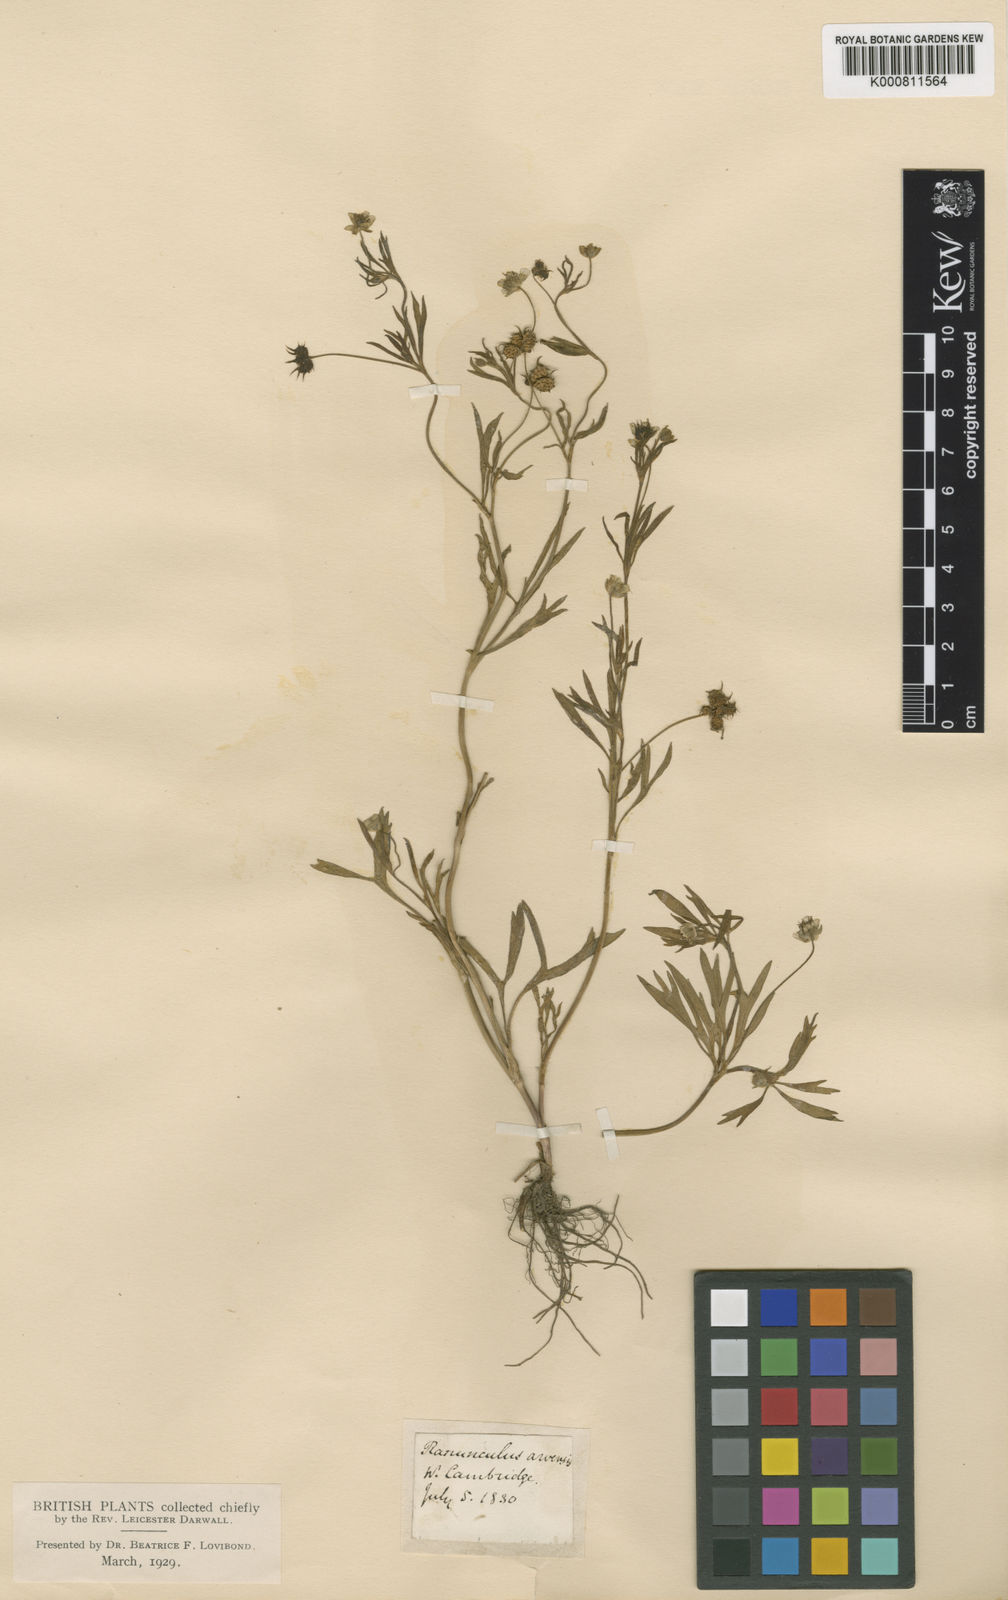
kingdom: Plantae
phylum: Tracheophyta
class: Magnoliopsida
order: Ranunculales
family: Ranunculaceae
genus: Ranunculus
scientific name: Ranunculus arvensis
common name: Corn buttercup
